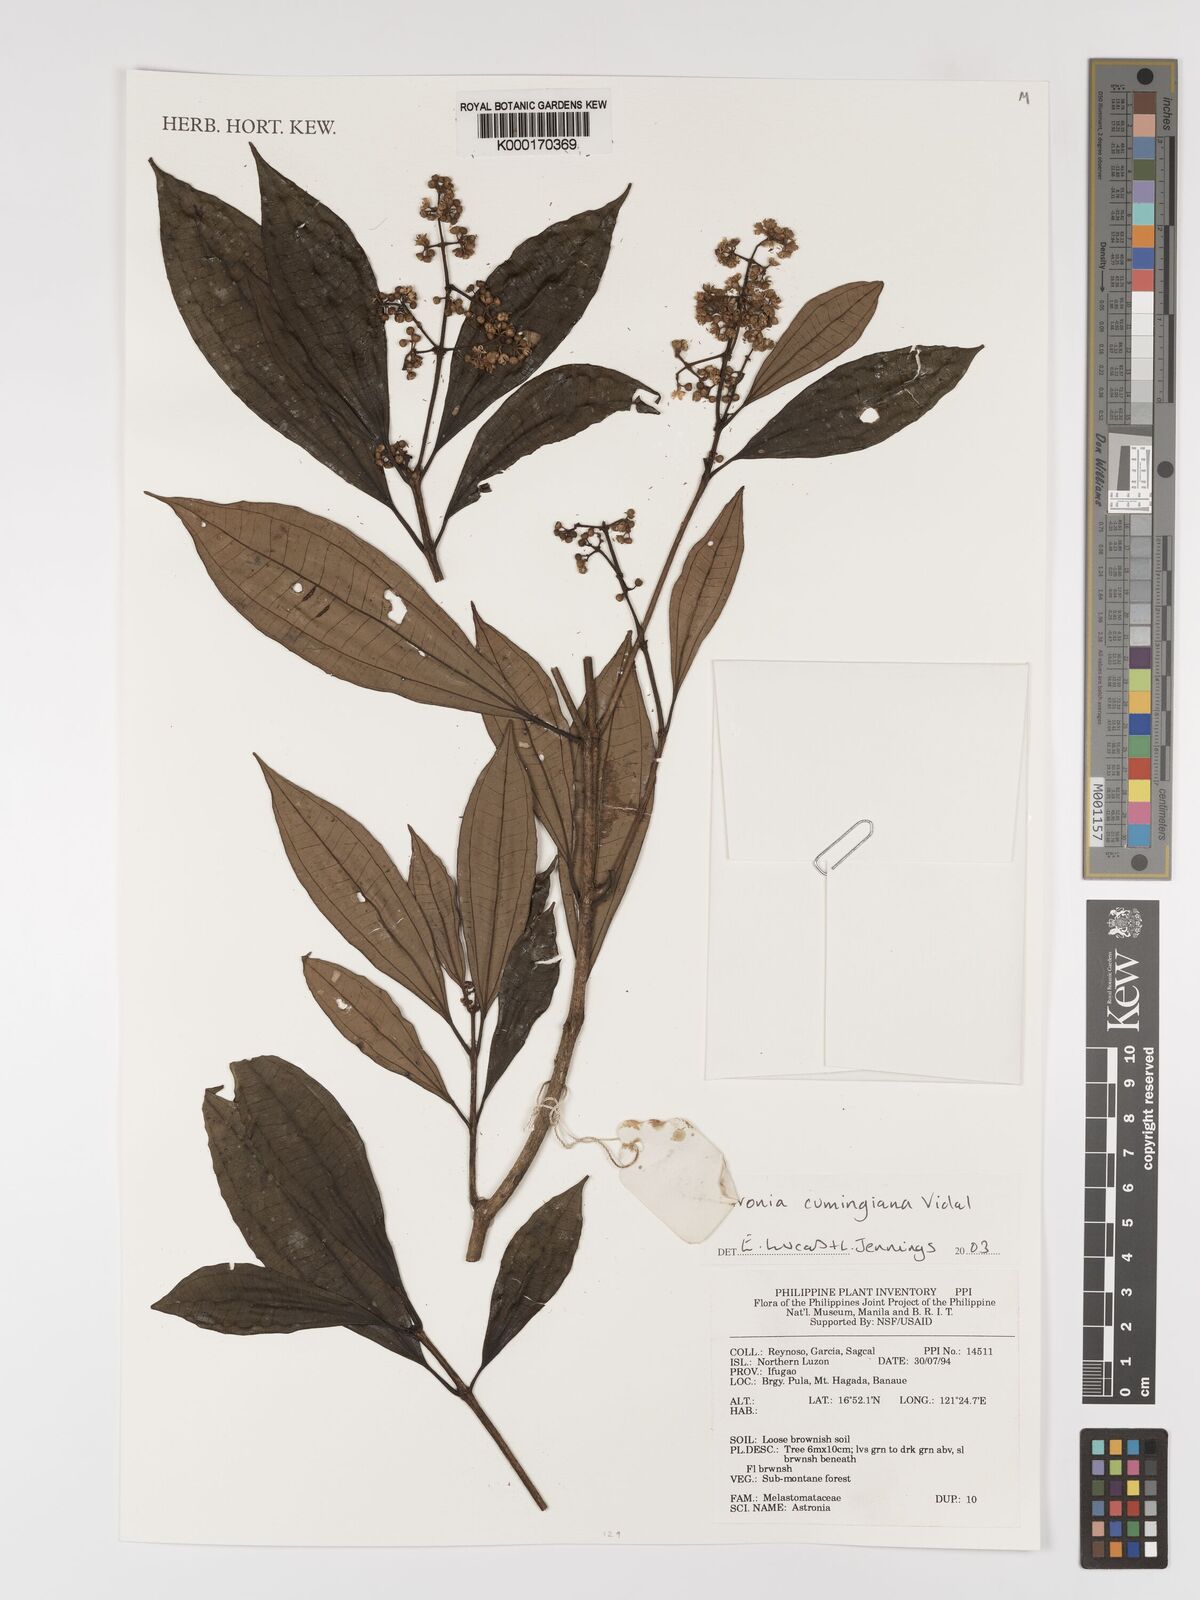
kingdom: Plantae
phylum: Tracheophyta
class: Magnoliopsida
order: Myrtales
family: Melastomataceae
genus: Astronia
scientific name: Astronia cumingiana
